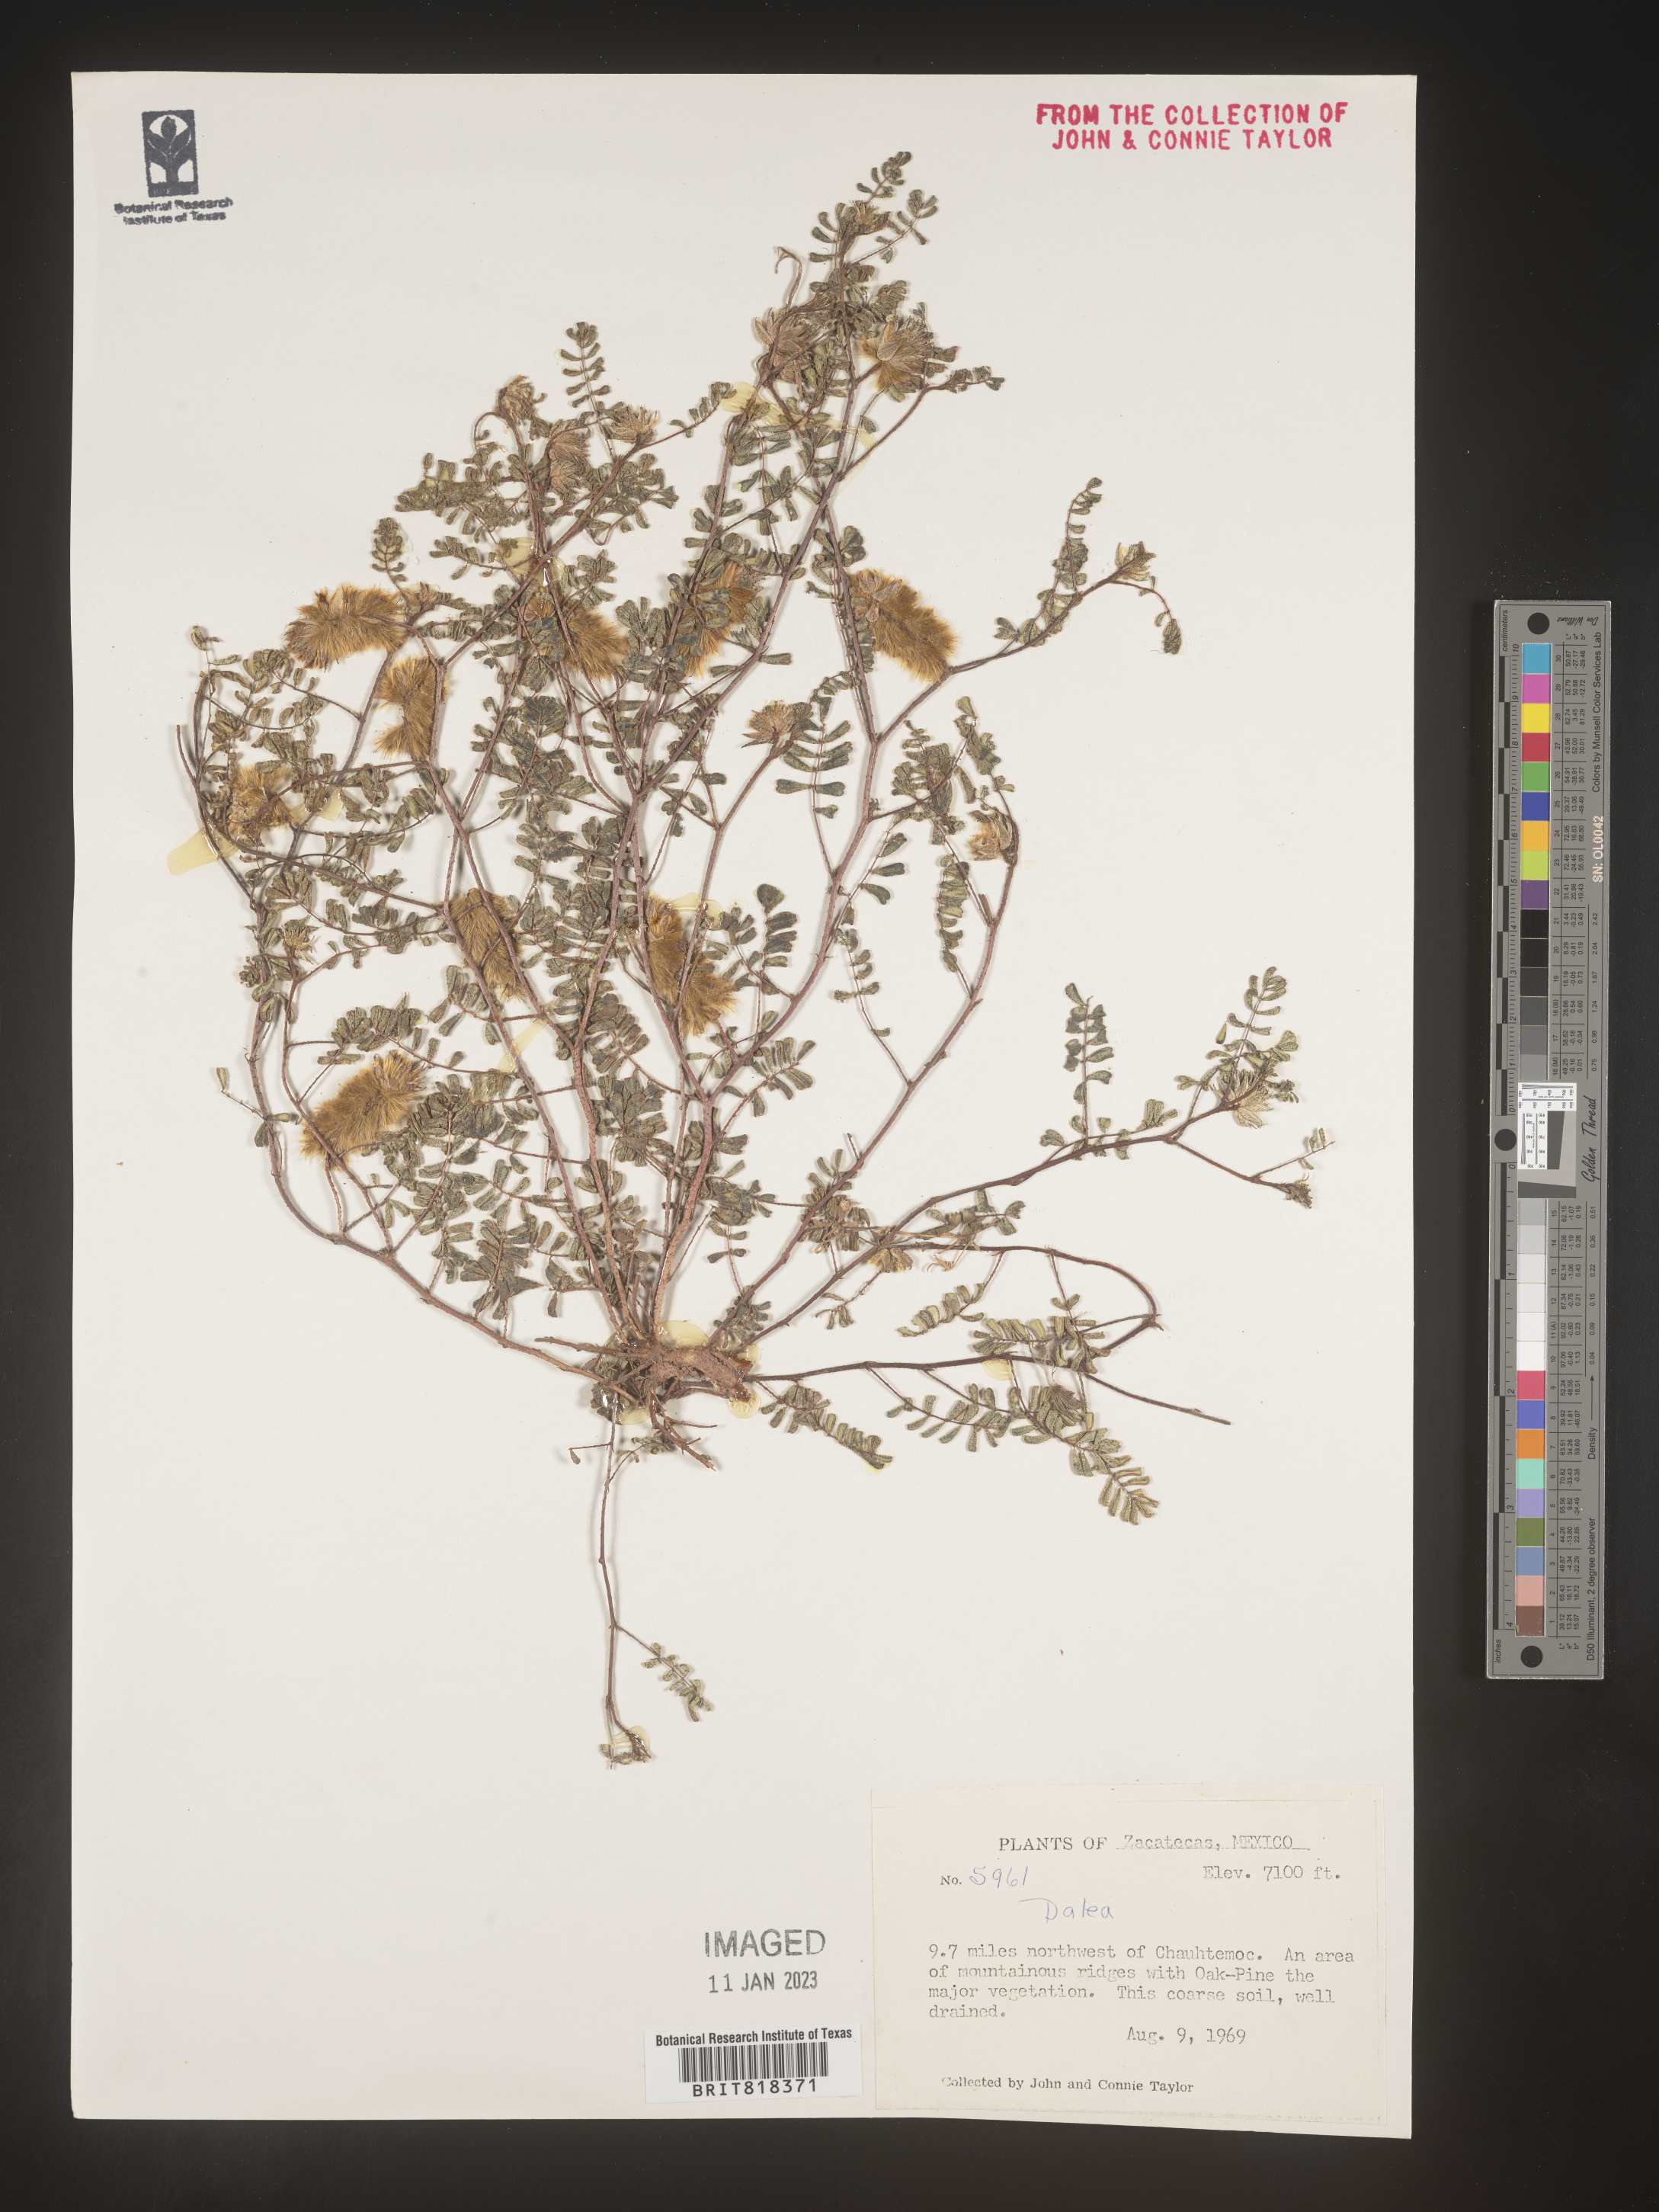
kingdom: Plantae
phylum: Tracheophyta
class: Magnoliopsida
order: Fabales
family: Fabaceae
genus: Dalea
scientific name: Dalea
